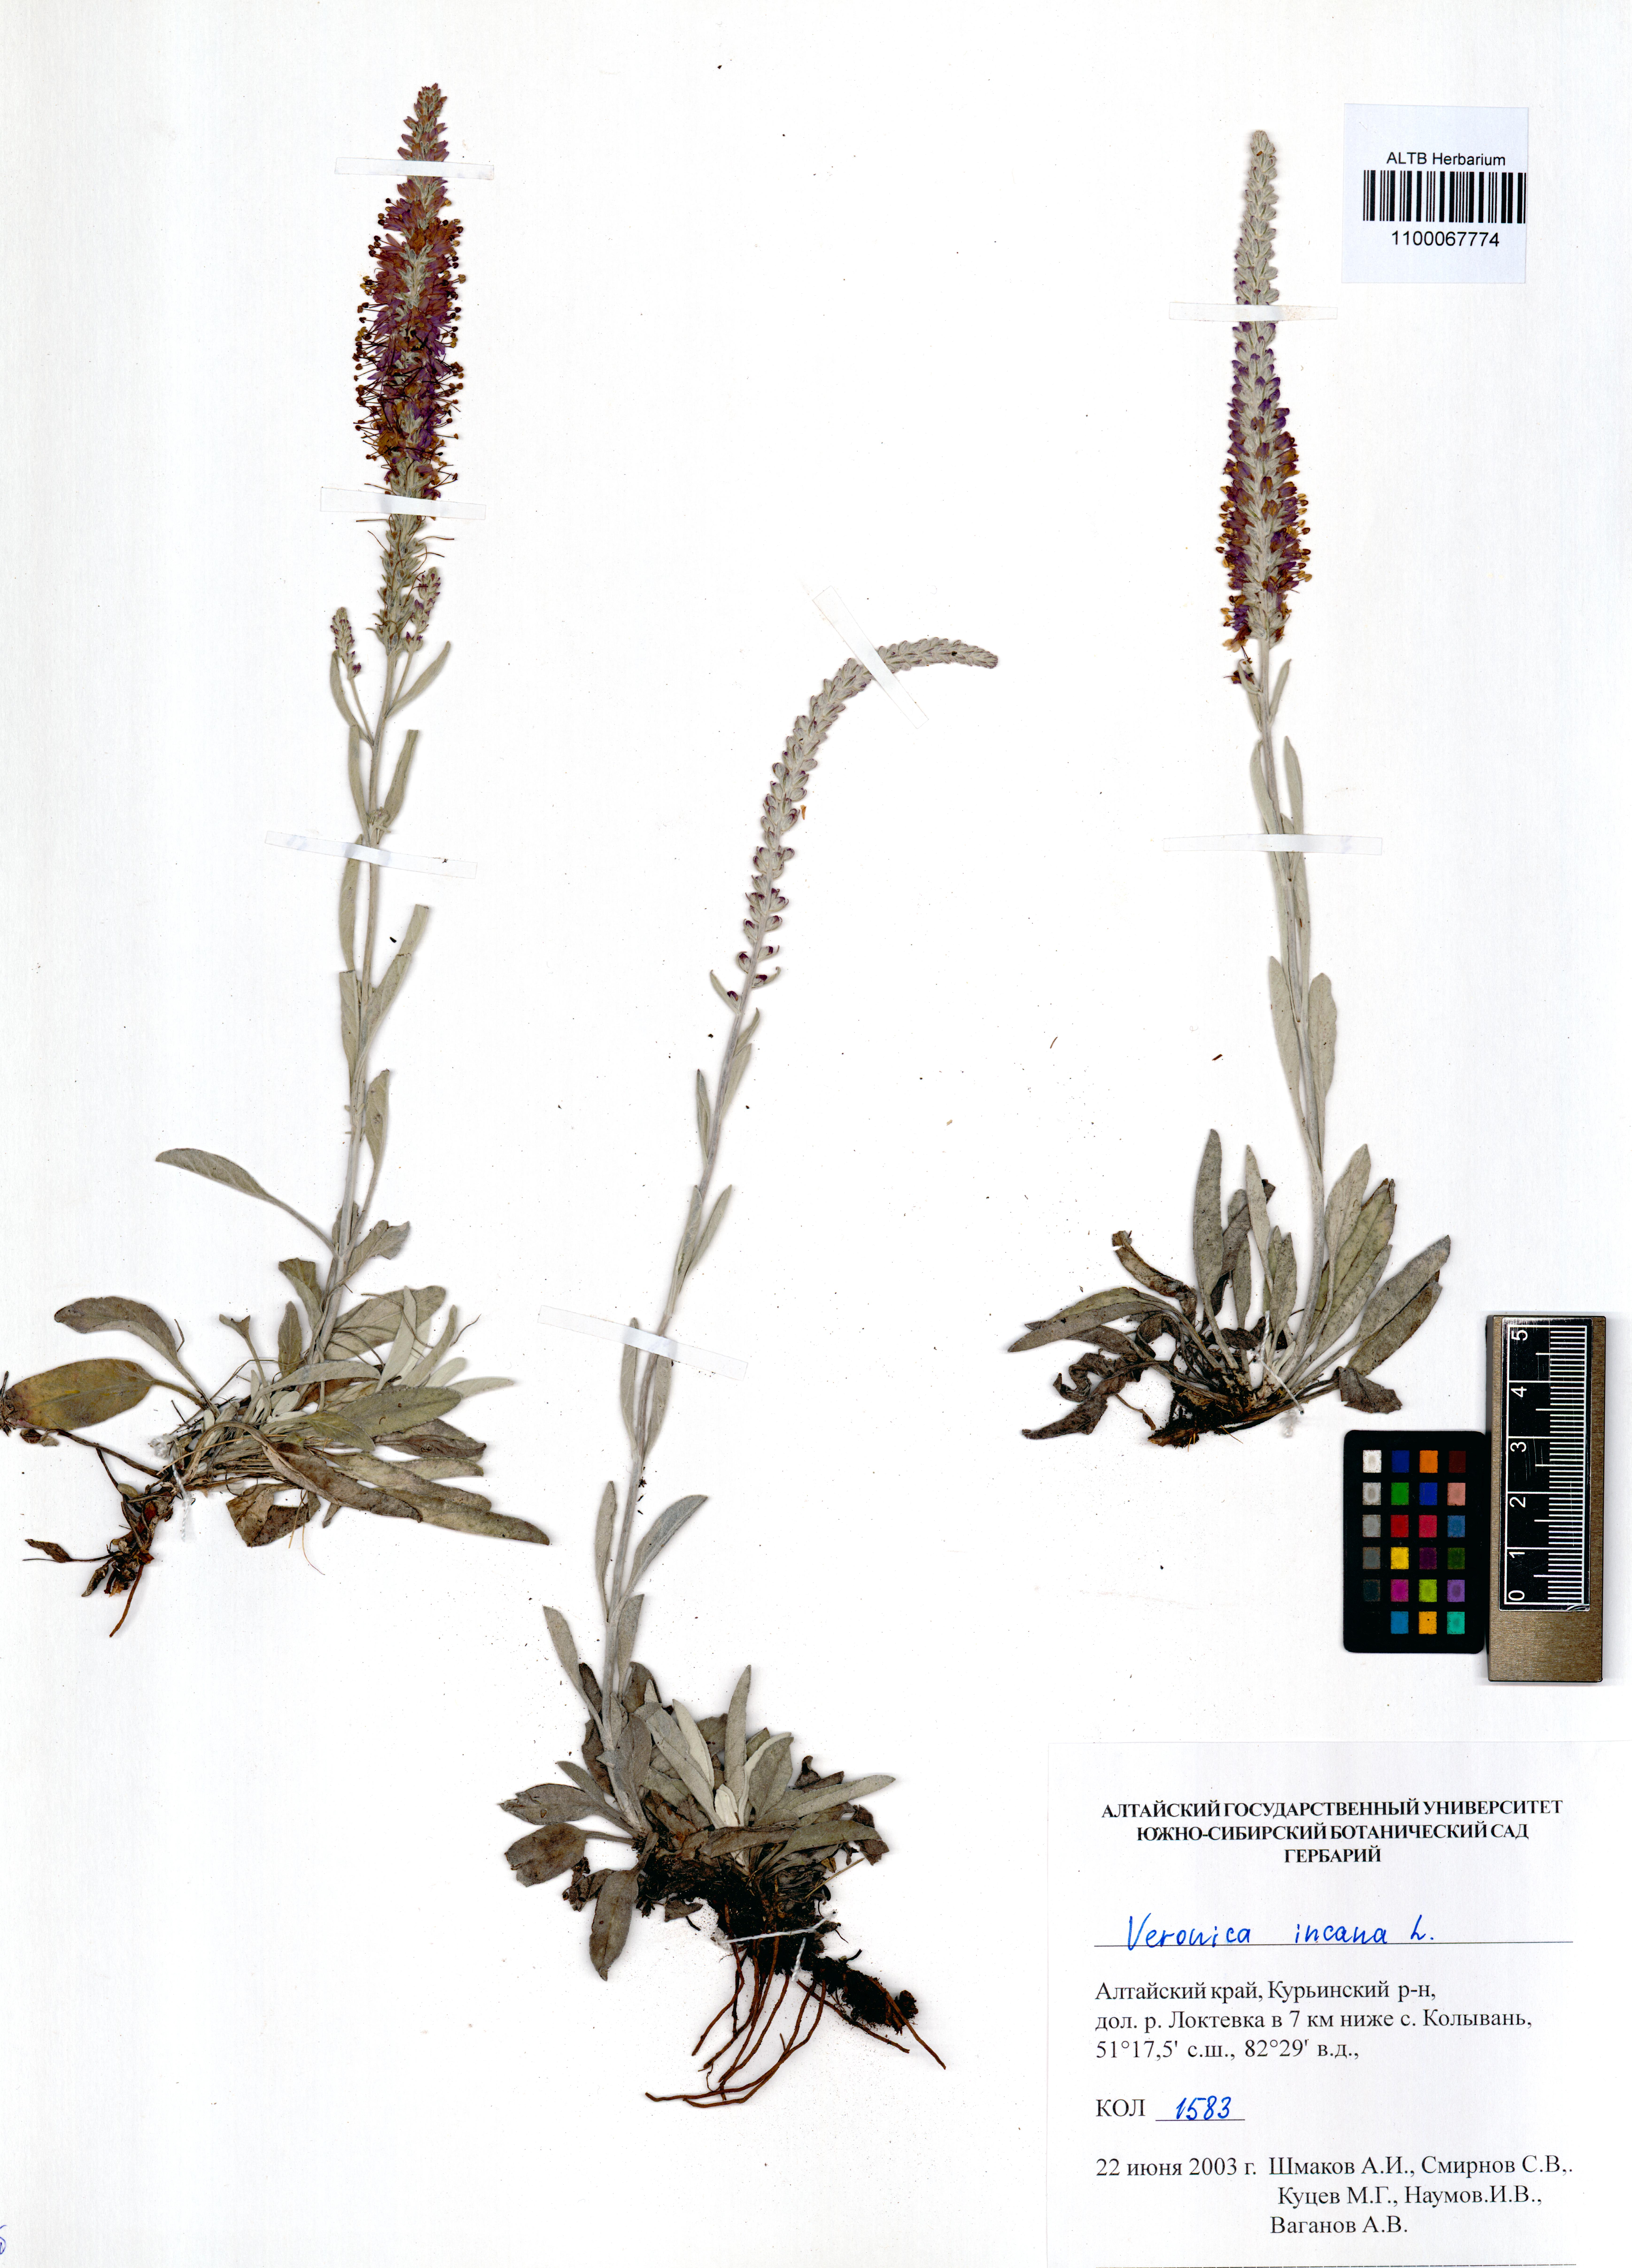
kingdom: Plantae
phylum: Tracheophyta
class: Magnoliopsida
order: Lamiales
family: Plantaginaceae
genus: Veronica
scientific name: Veronica incana
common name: Silver speedwell
